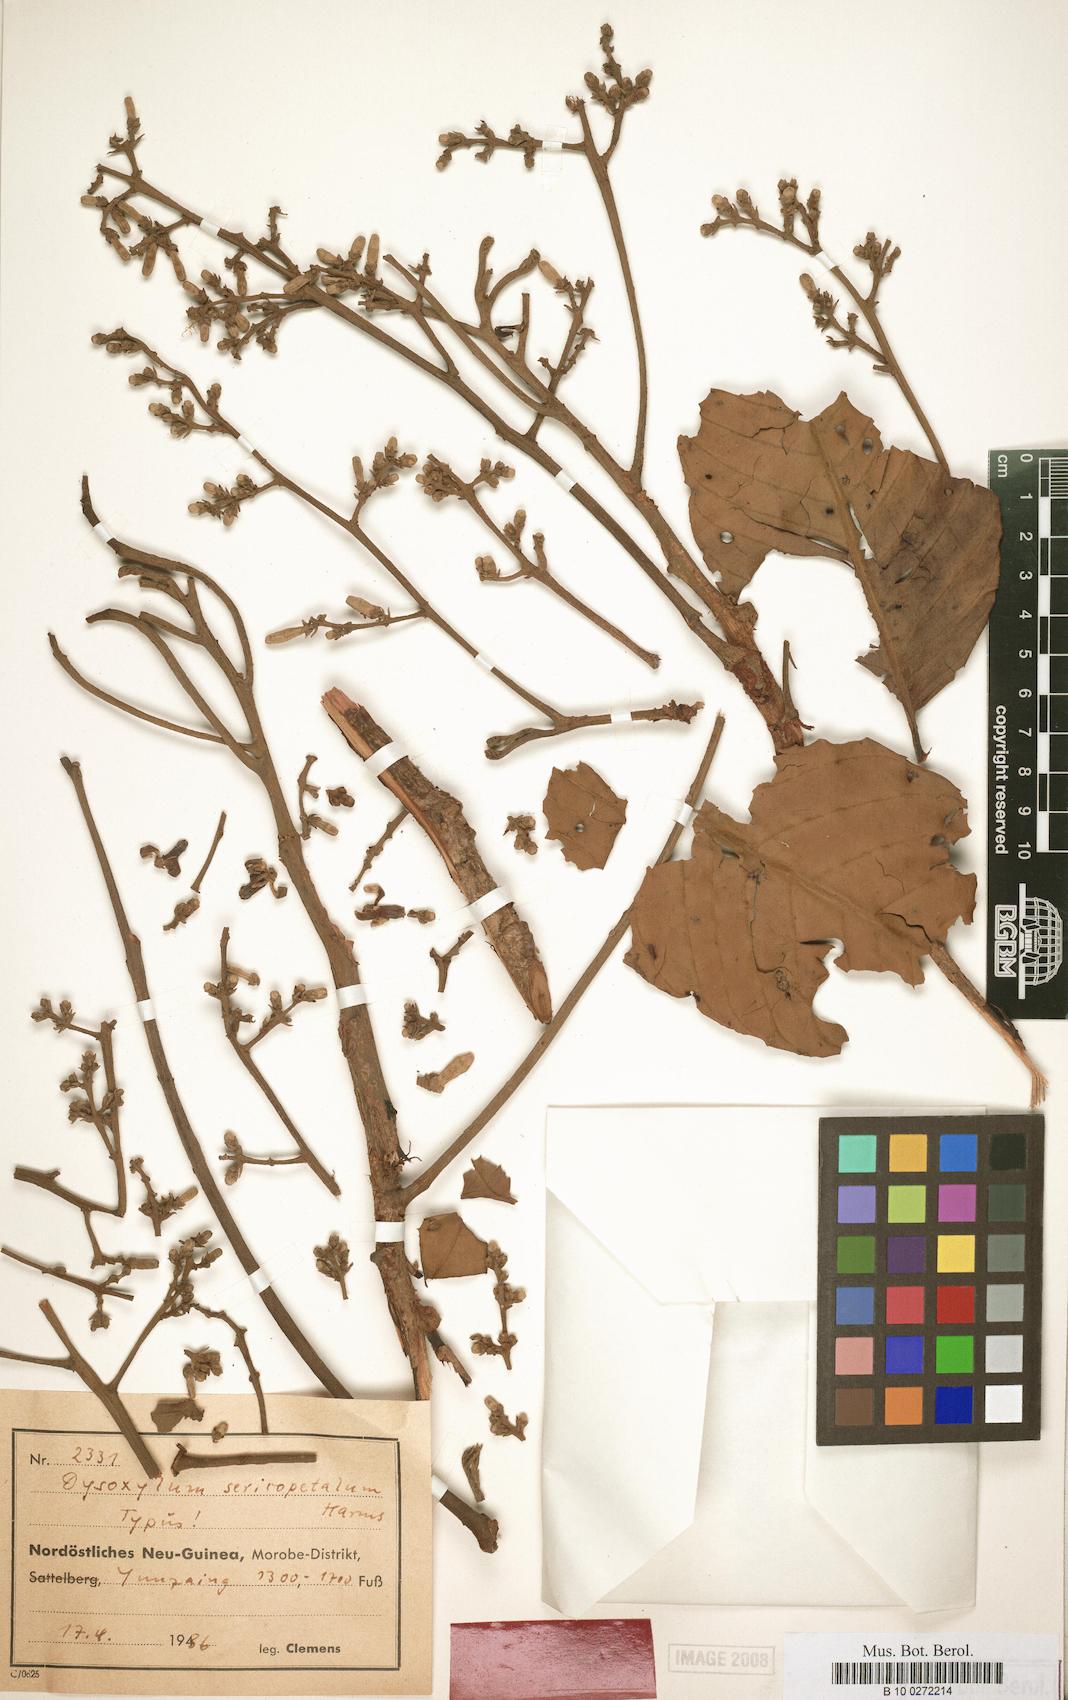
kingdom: Plantae
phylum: Tracheophyta
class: Magnoliopsida
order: Sapindales
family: Meliaceae
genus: Dysoxylum
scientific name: Dysoxylum randianum
